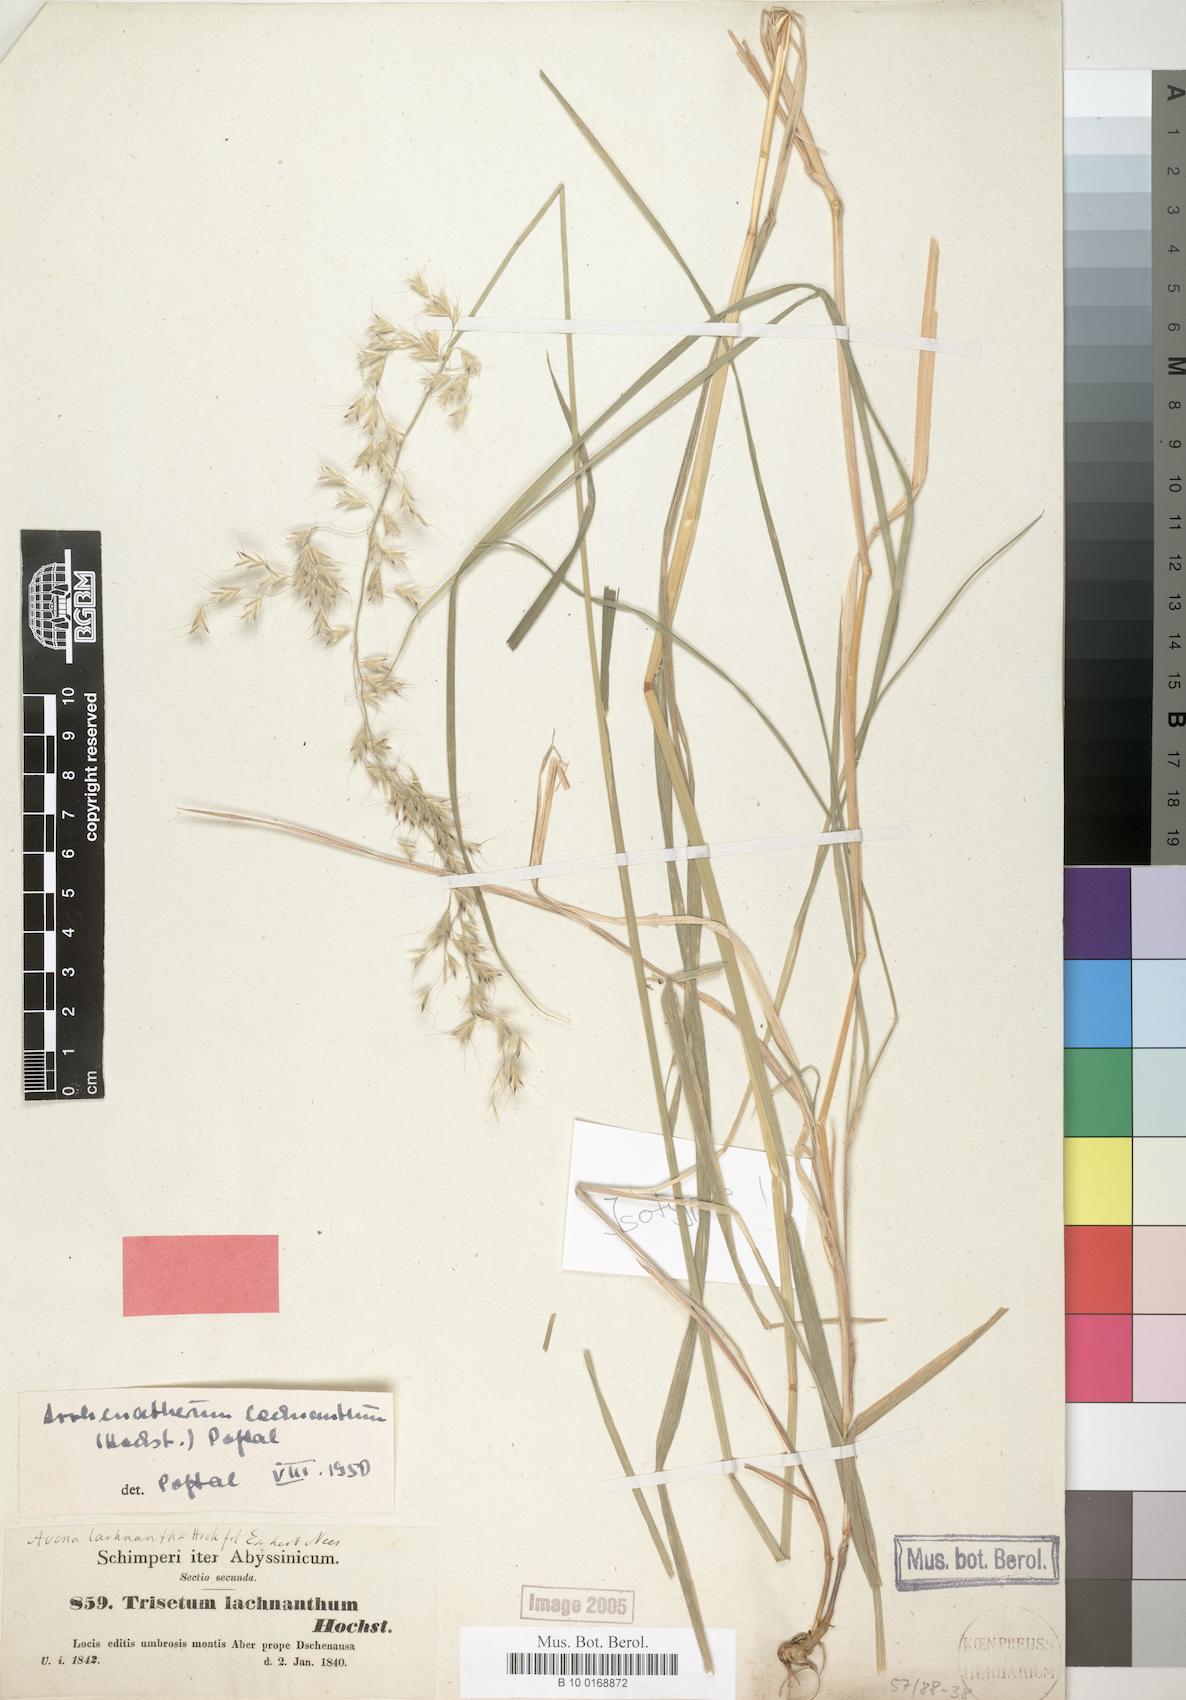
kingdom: Plantae
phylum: Tracheophyta
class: Liliopsida
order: Poales
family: Poaceae
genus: Trisetopsis
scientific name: Trisetopsis lachnantha
